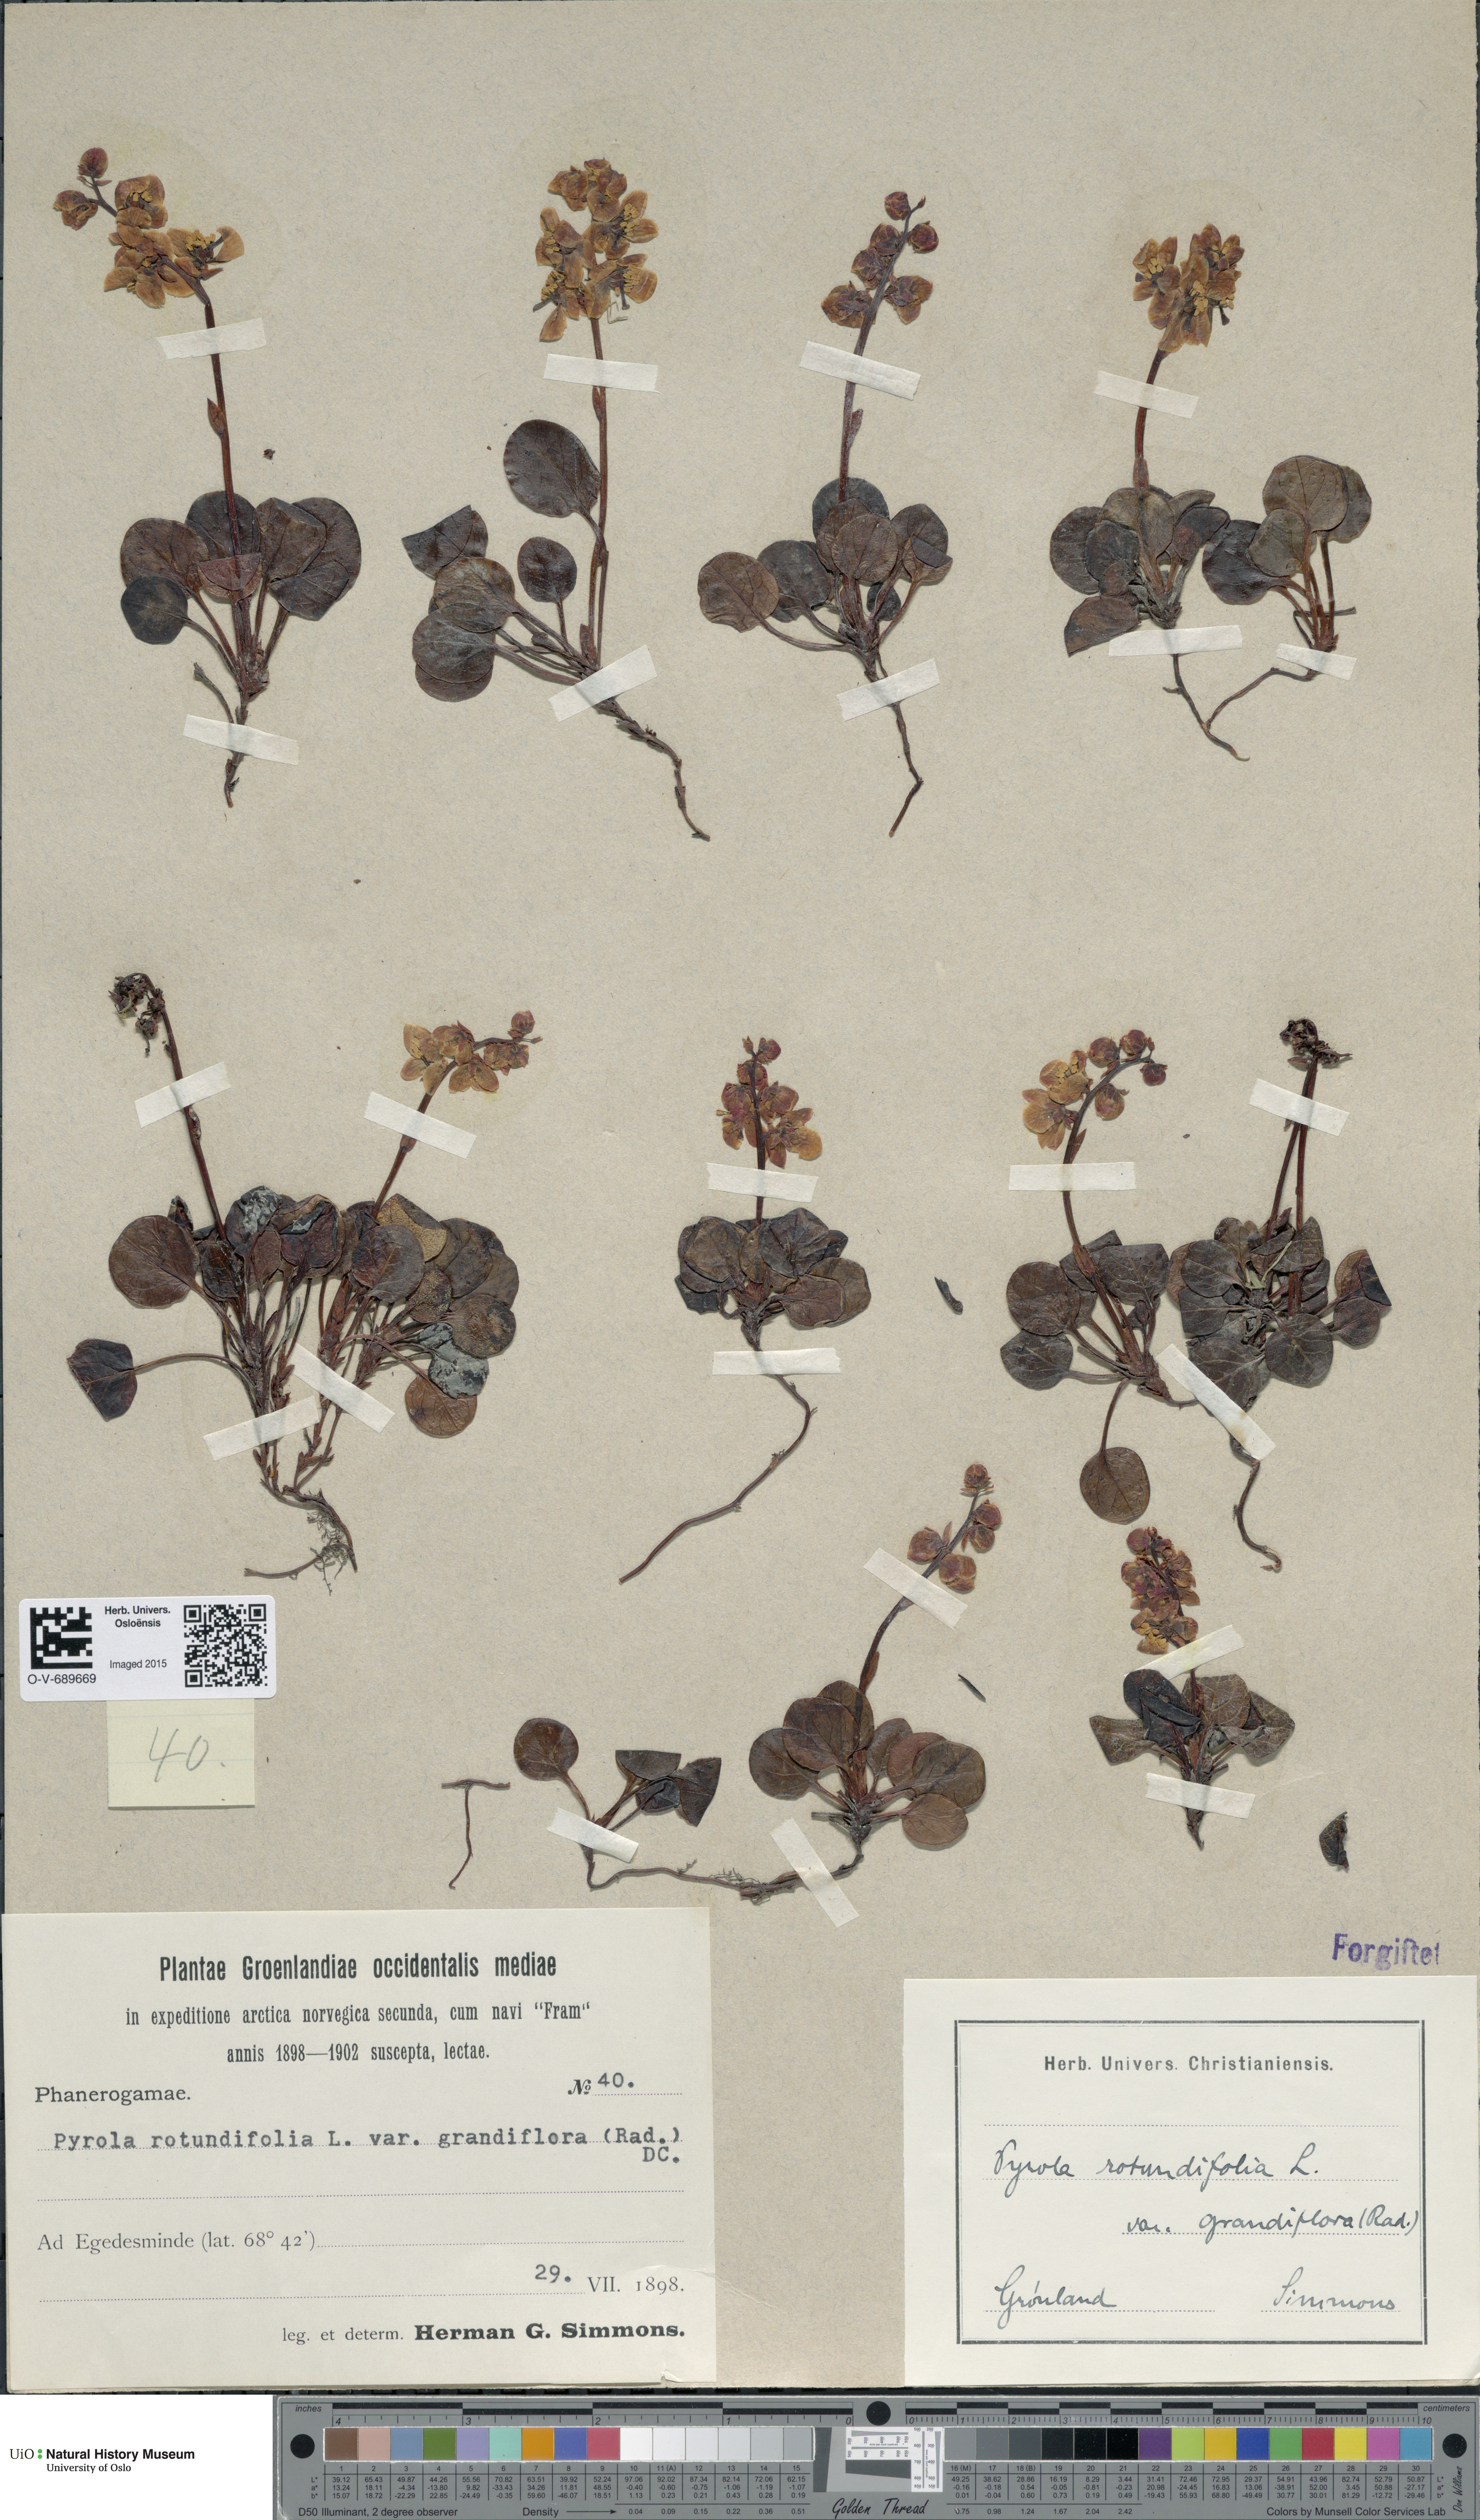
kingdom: Plantae
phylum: Tracheophyta
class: Magnoliopsida
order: Ericales
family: Ericaceae
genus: Pyrola
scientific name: Pyrola grandiflora
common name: Arctic pyrola
